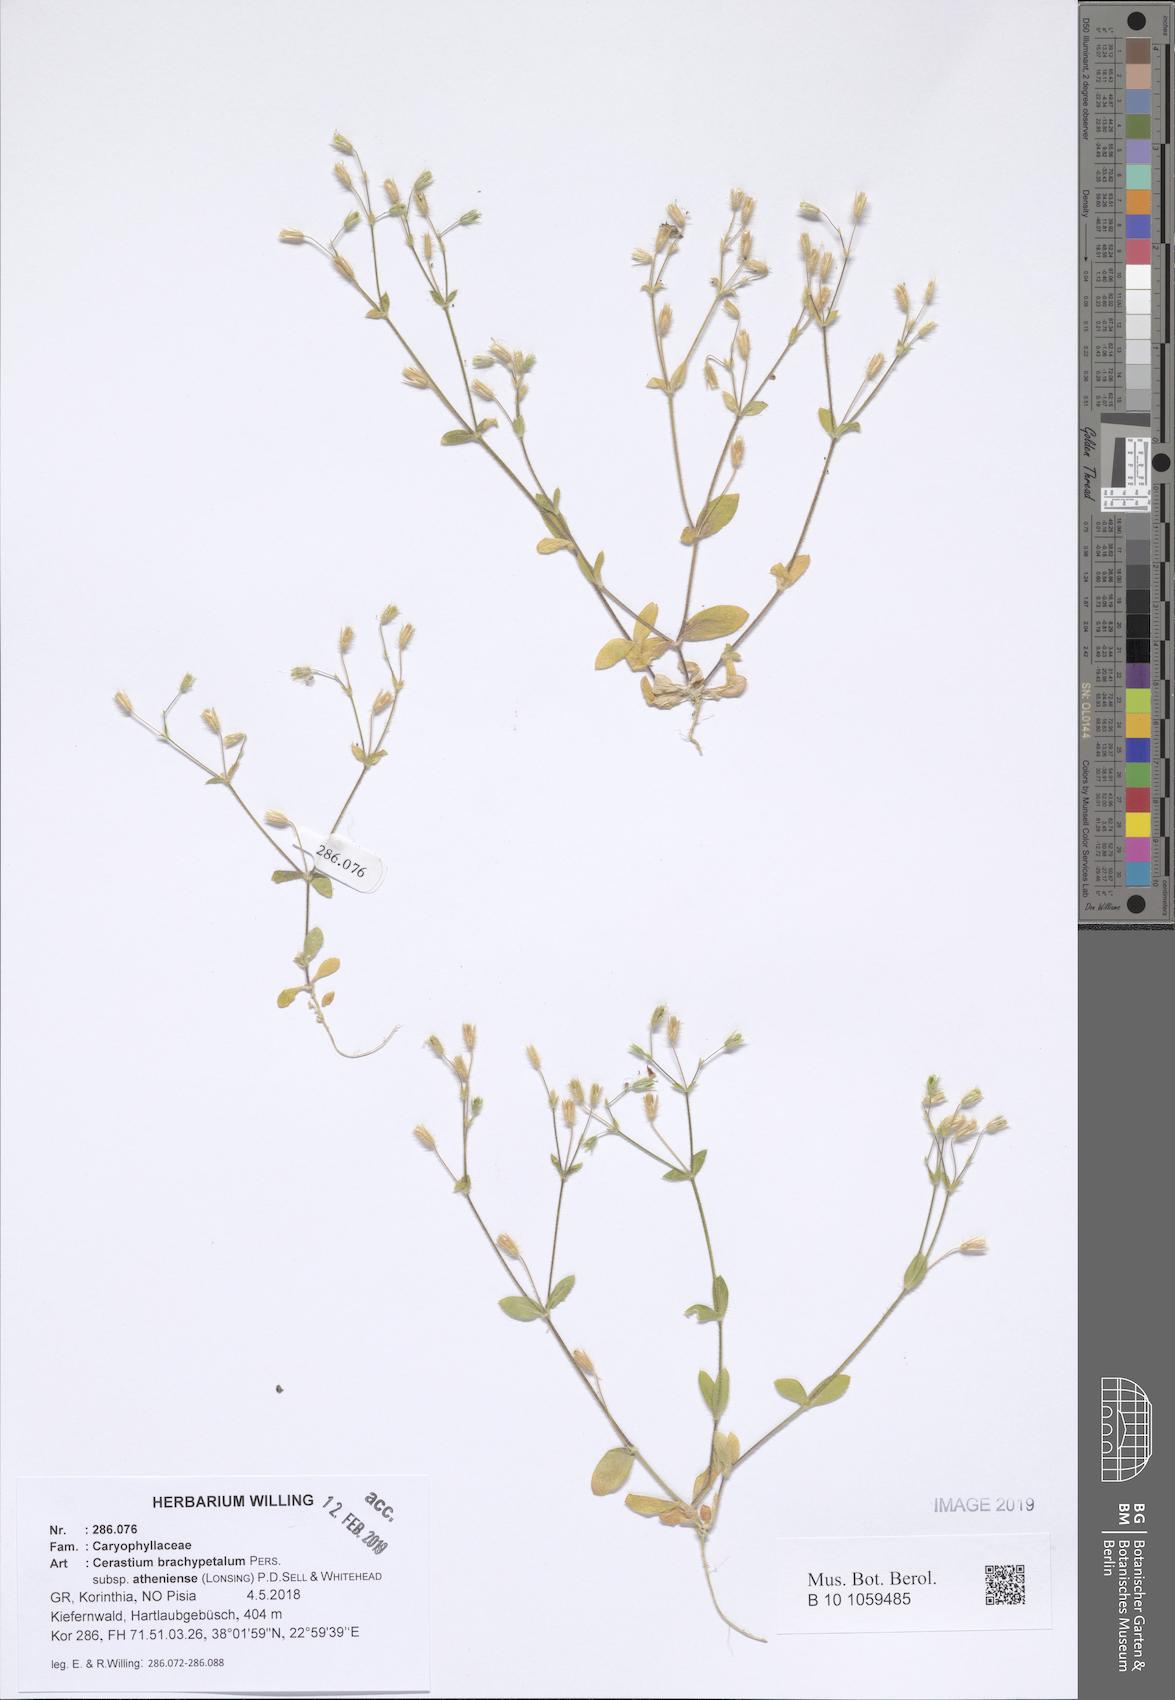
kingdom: Plantae
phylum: Tracheophyta
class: Magnoliopsida
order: Caryophyllales
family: Caryophyllaceae
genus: Cerastium
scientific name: Cerastium brachypetalum
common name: Grey mouse-ear
